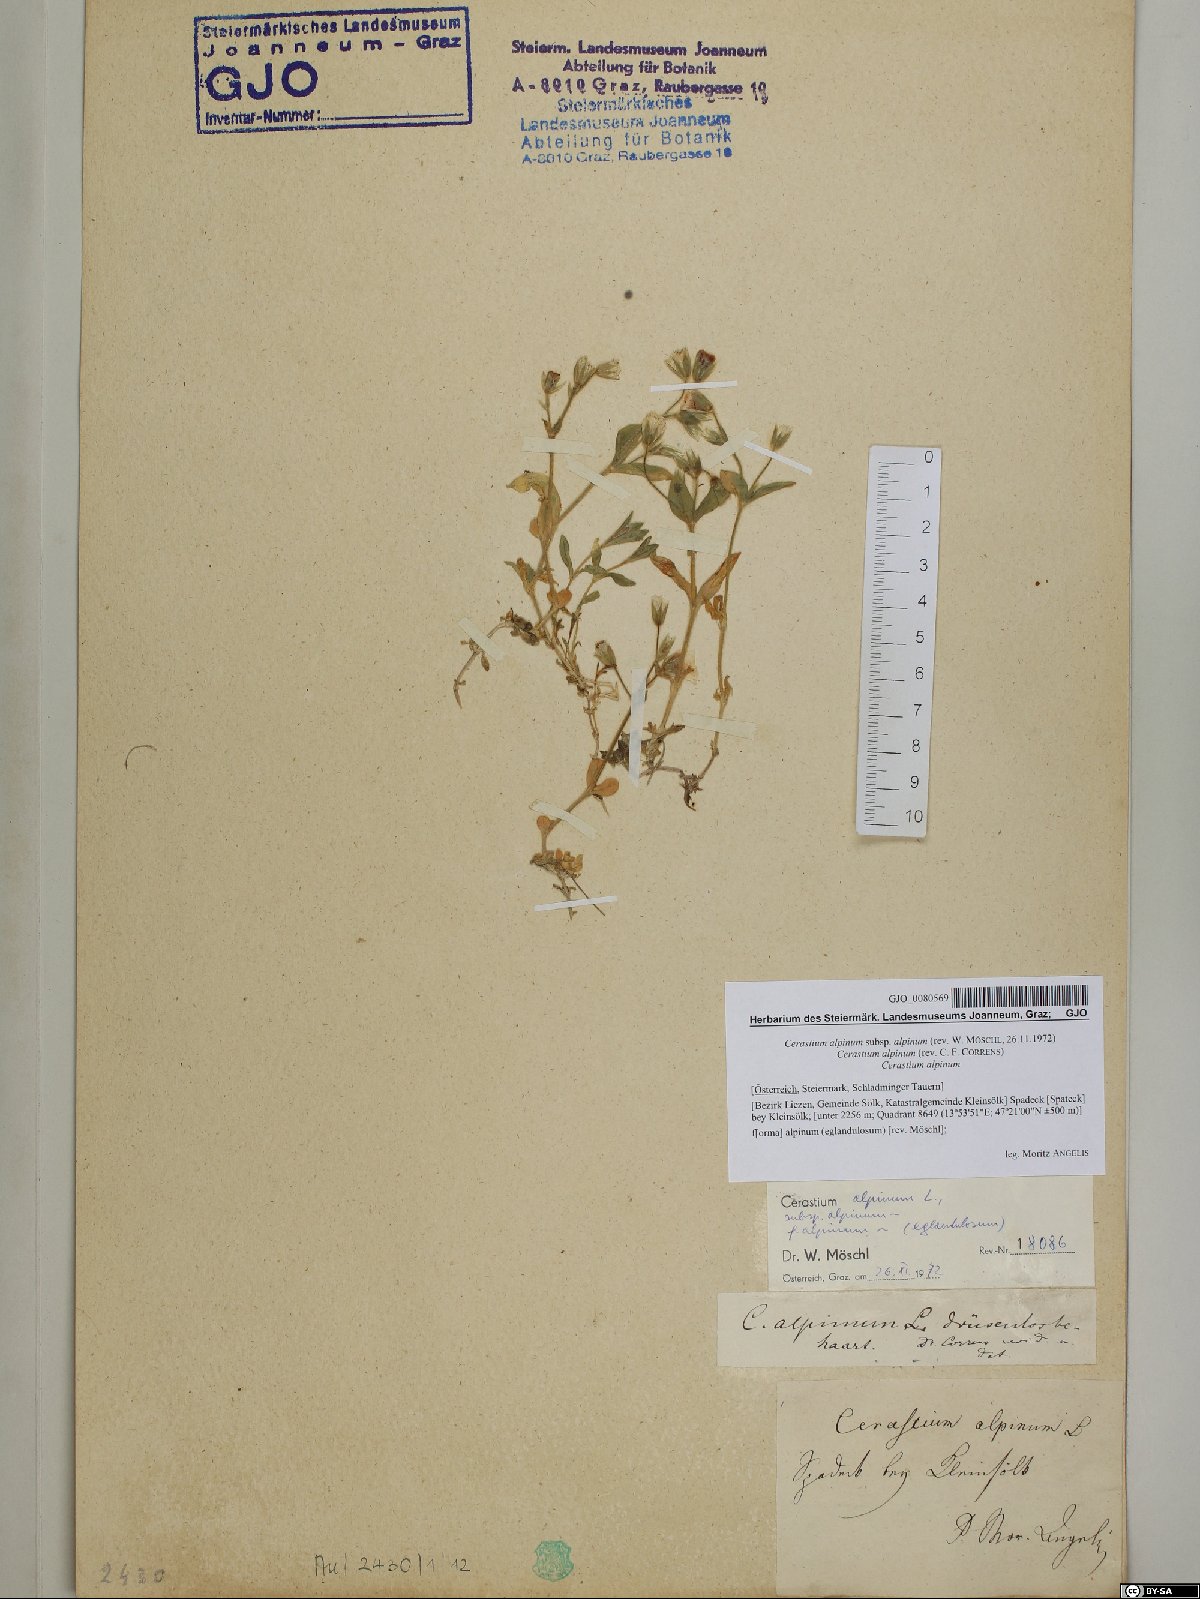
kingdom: Plantae
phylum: Tracheophyta
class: Magnoliopsida
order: Caryophyllales
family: Caryophyllaceae
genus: Cerastium
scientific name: Cerastium alpinum
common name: Alpine mouse-ear
